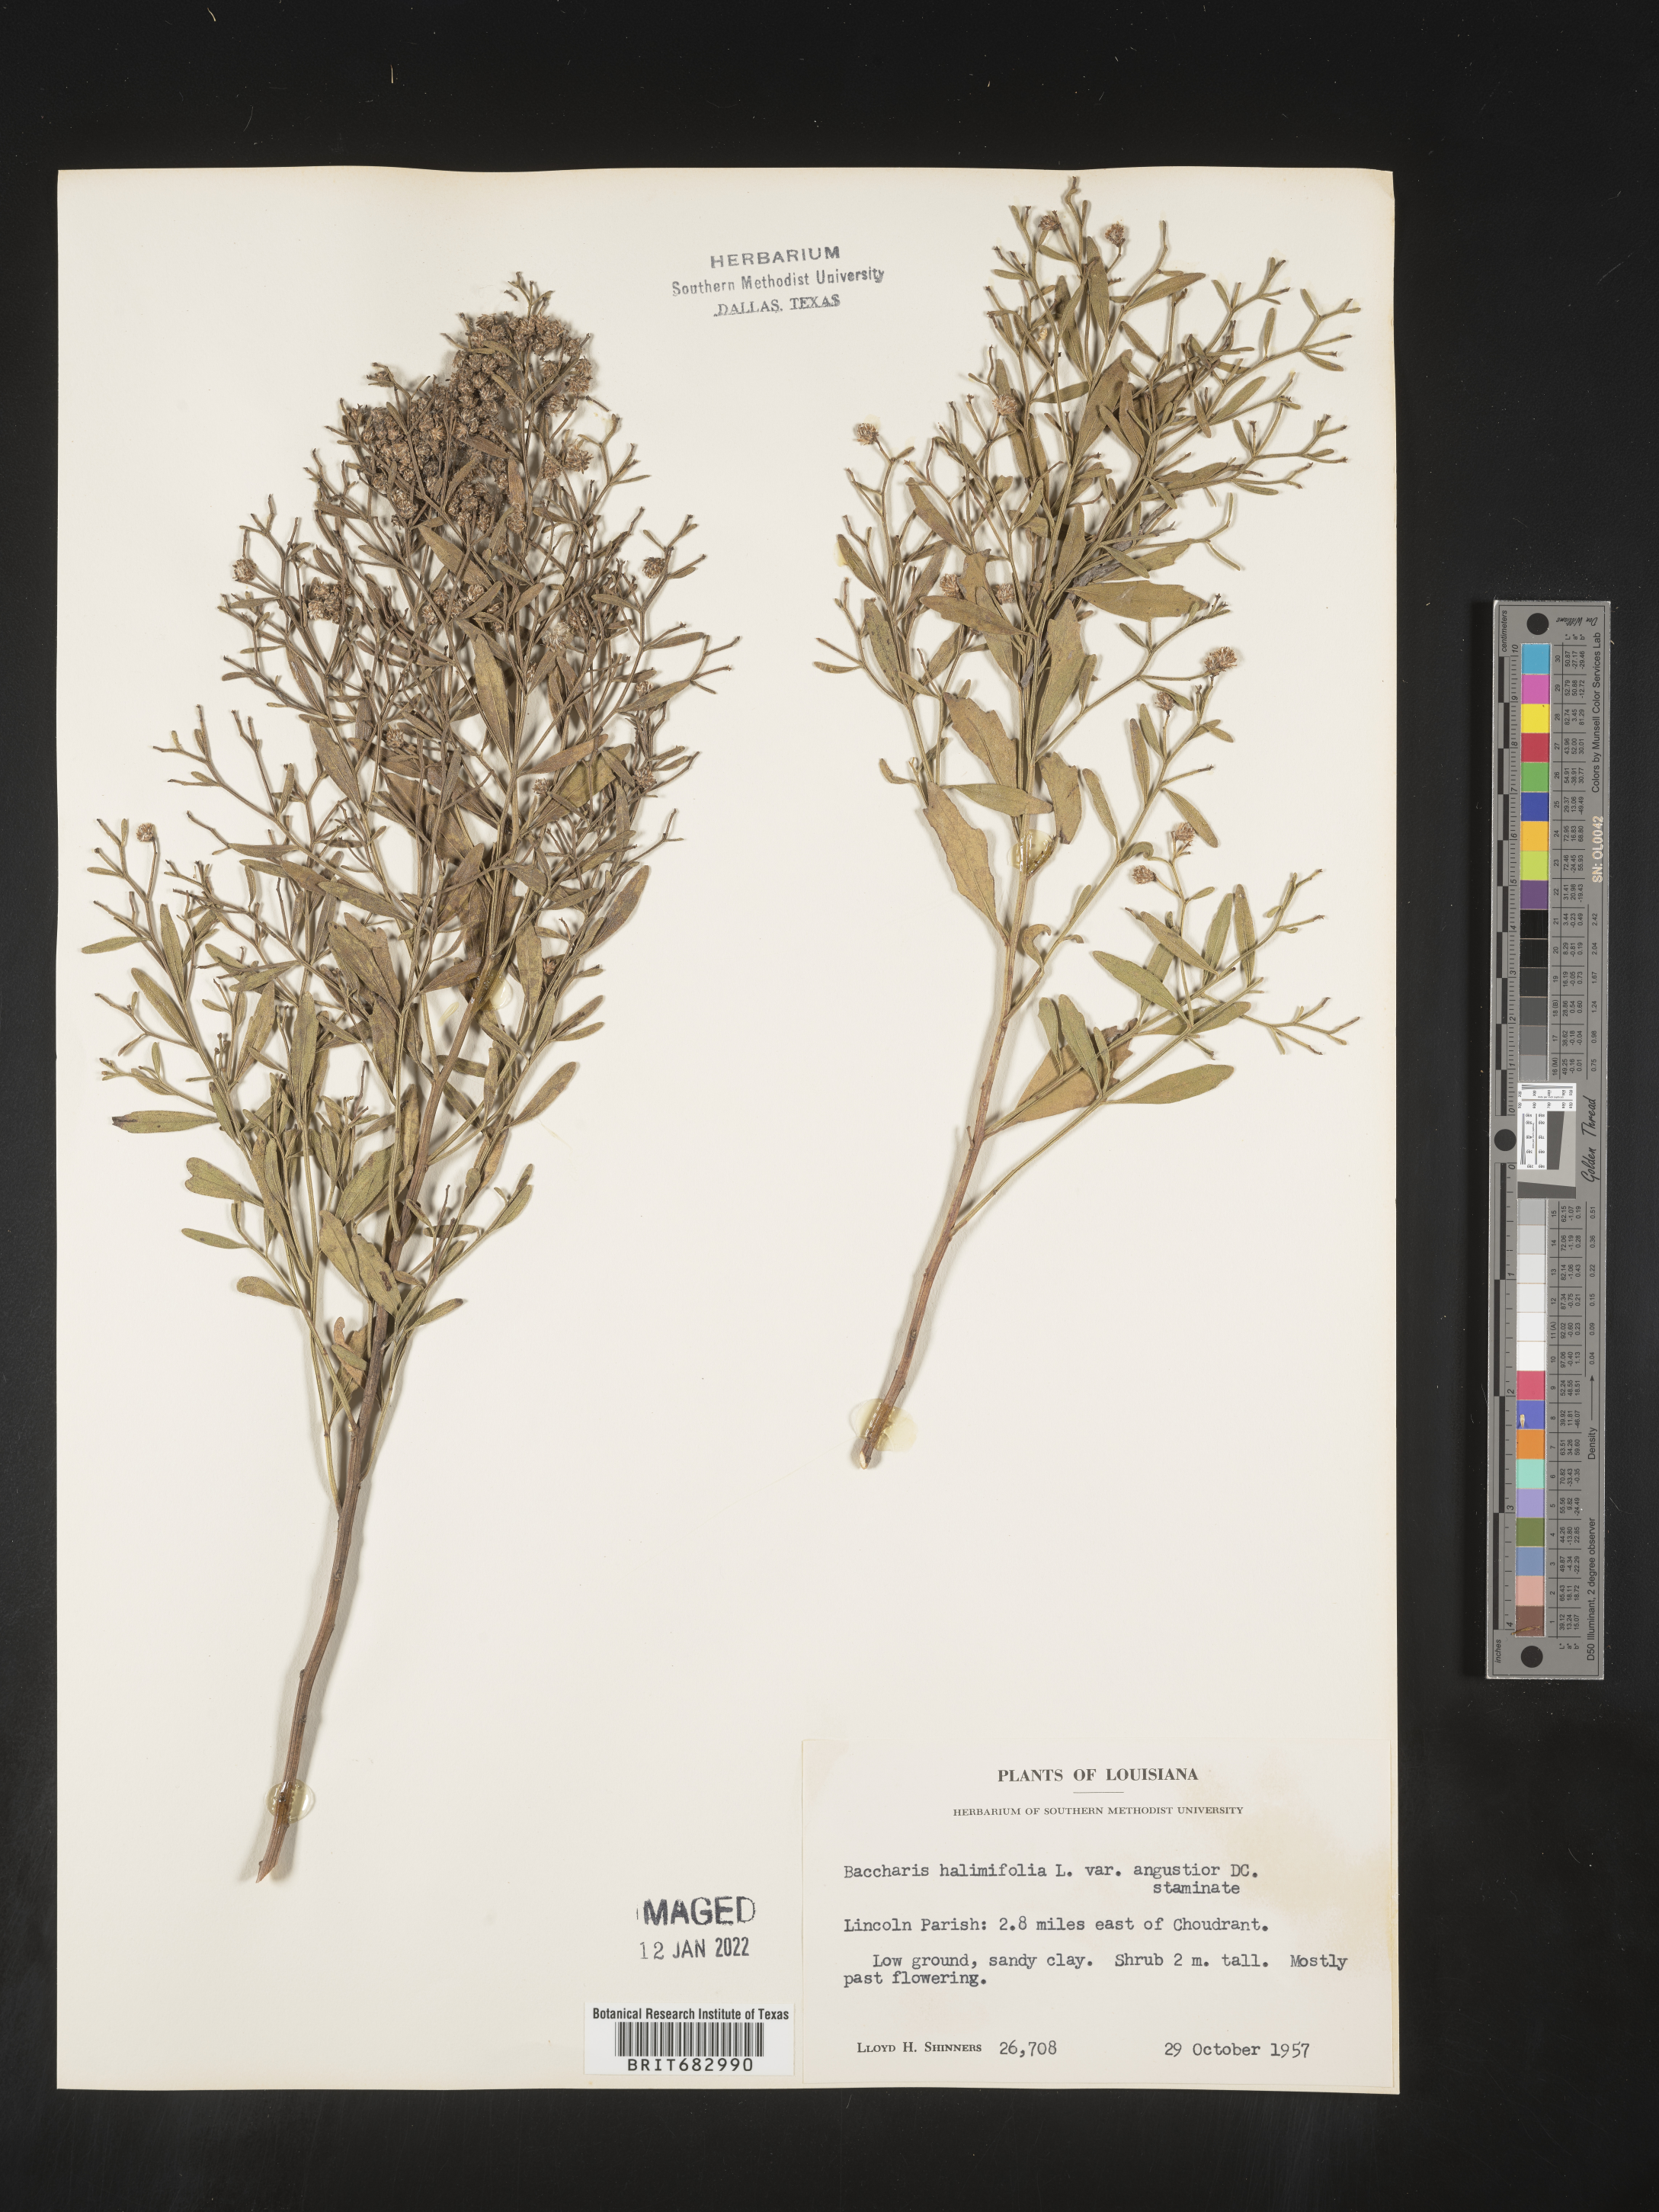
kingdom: Plantae
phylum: Tracheophyta
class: Magnoliopsida
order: Asterales
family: Asteraceae
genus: Nidorella
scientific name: Nidorella ivifolia
